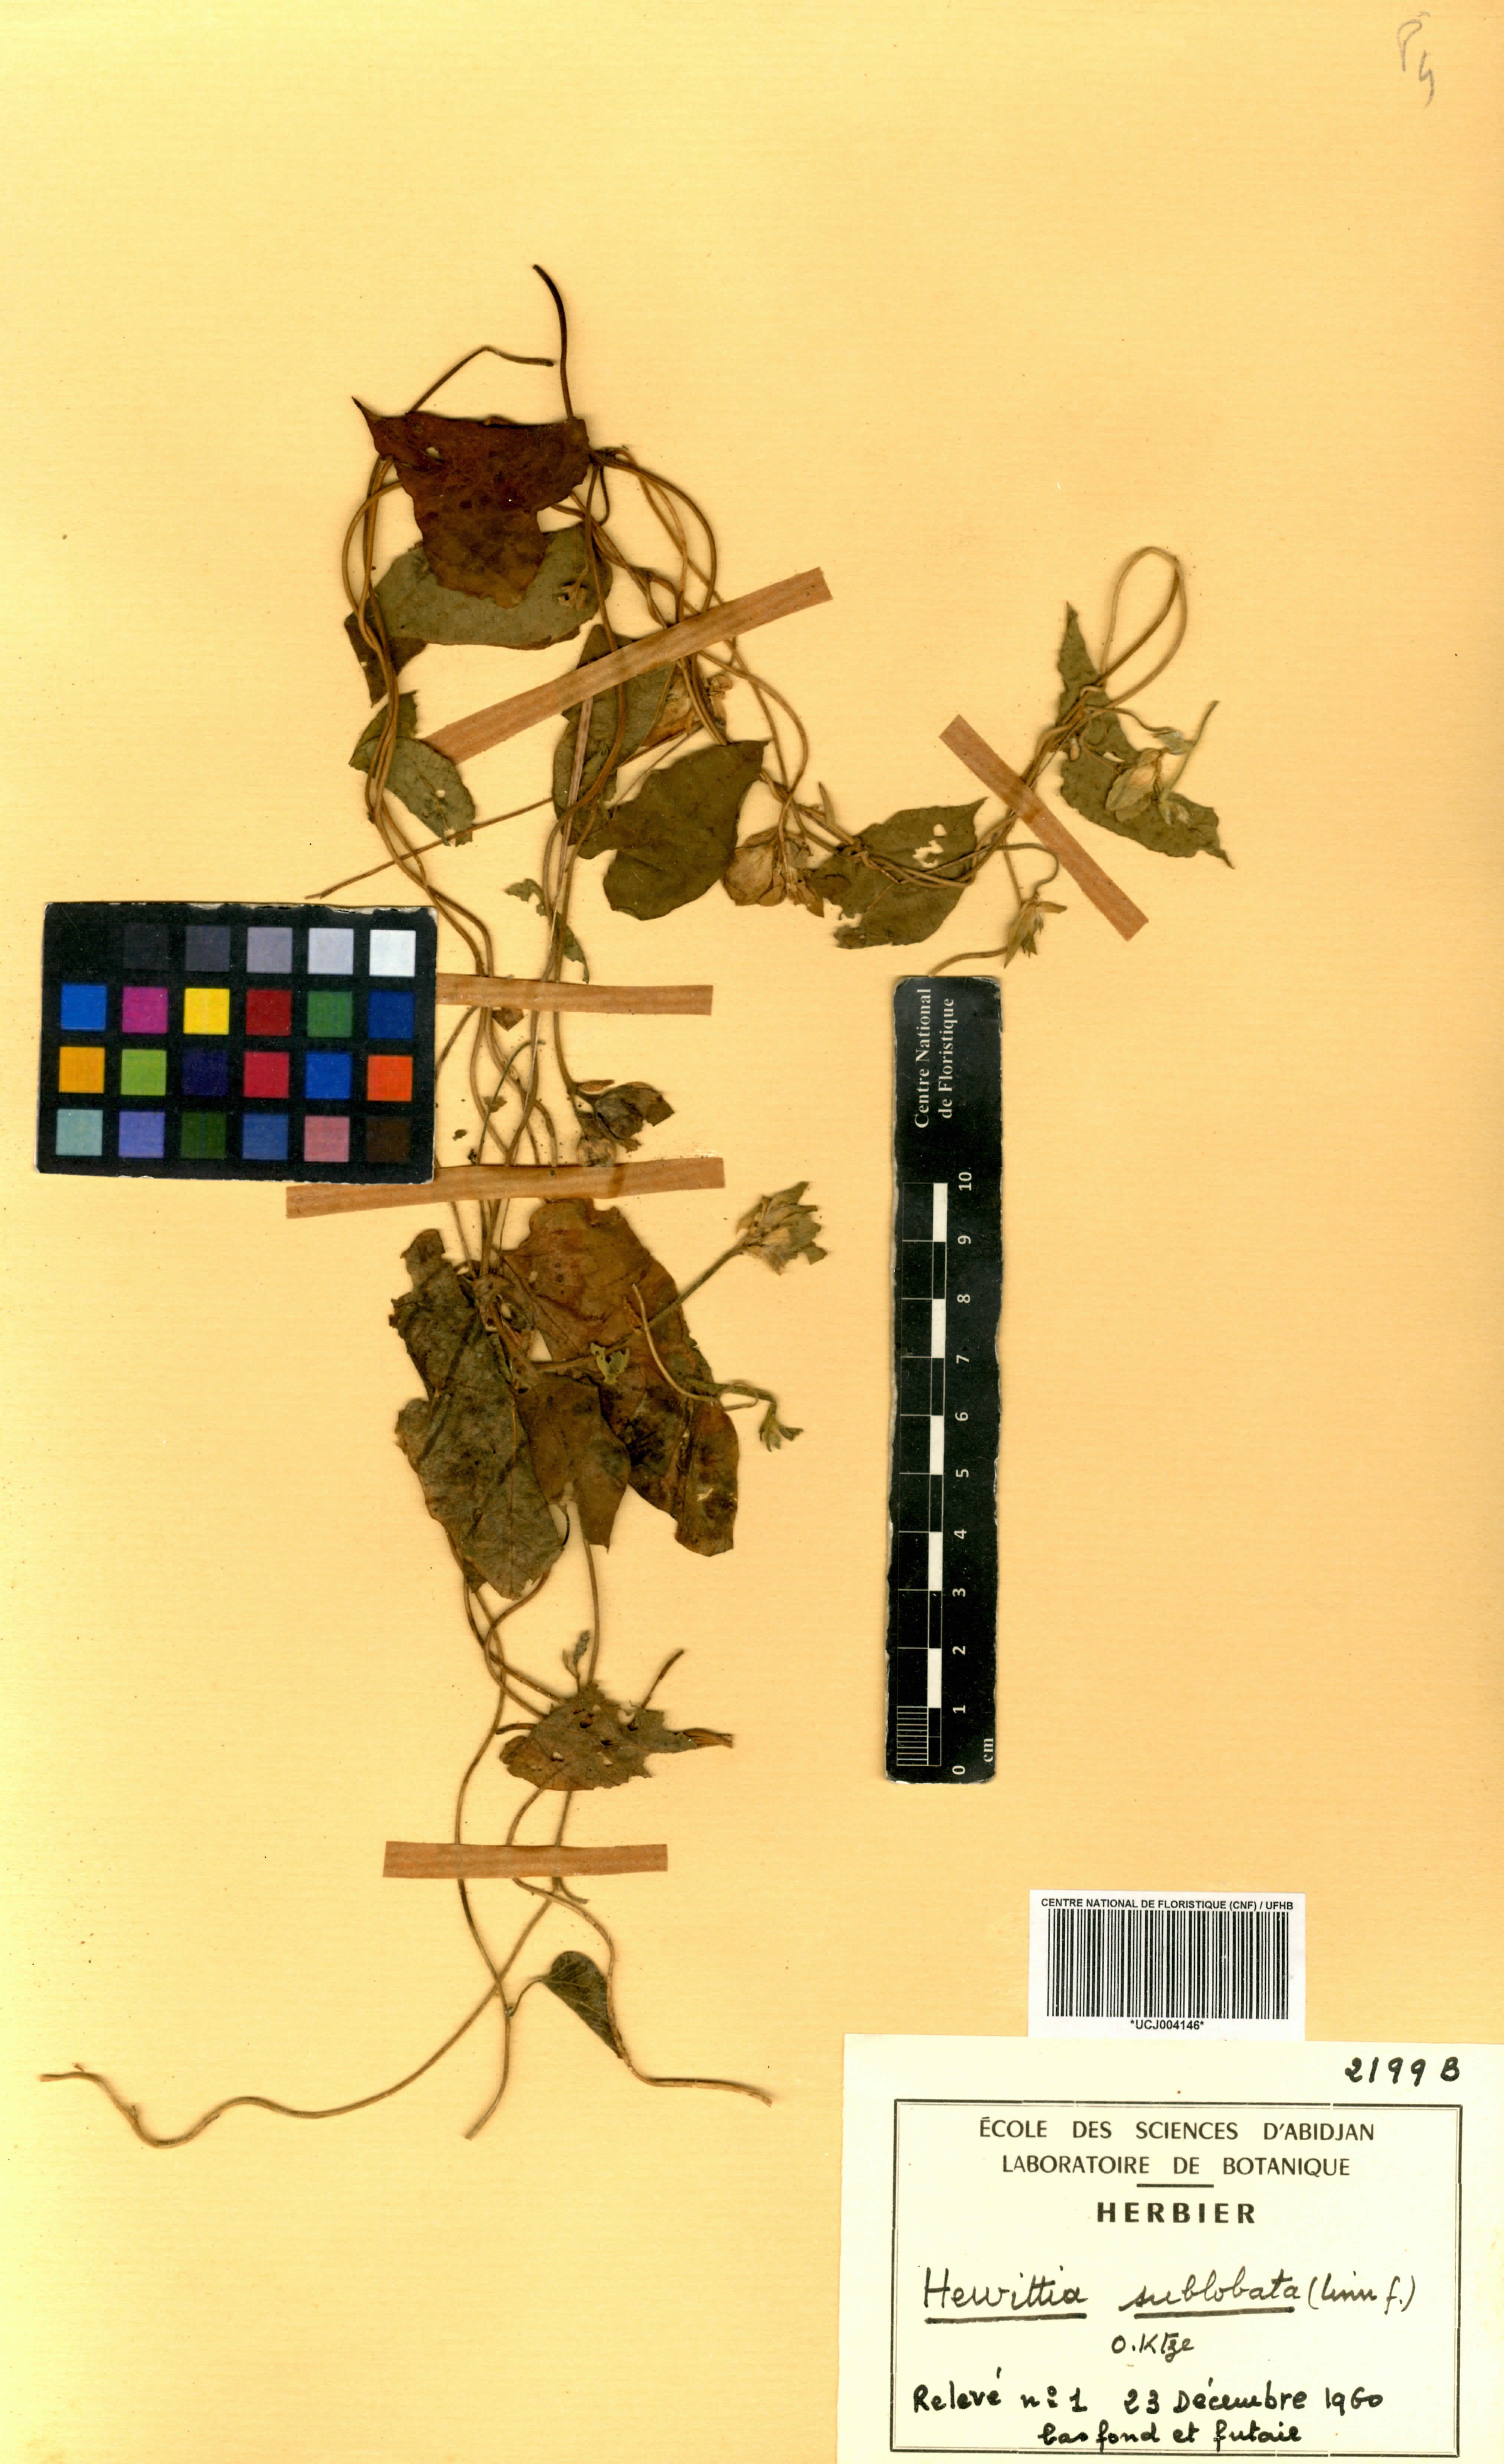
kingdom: Plantae
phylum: Tracheophyta
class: Magnoliopsida
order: Solanales
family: Convolvulaceae
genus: Hewittia
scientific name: Hewittia sublobata
